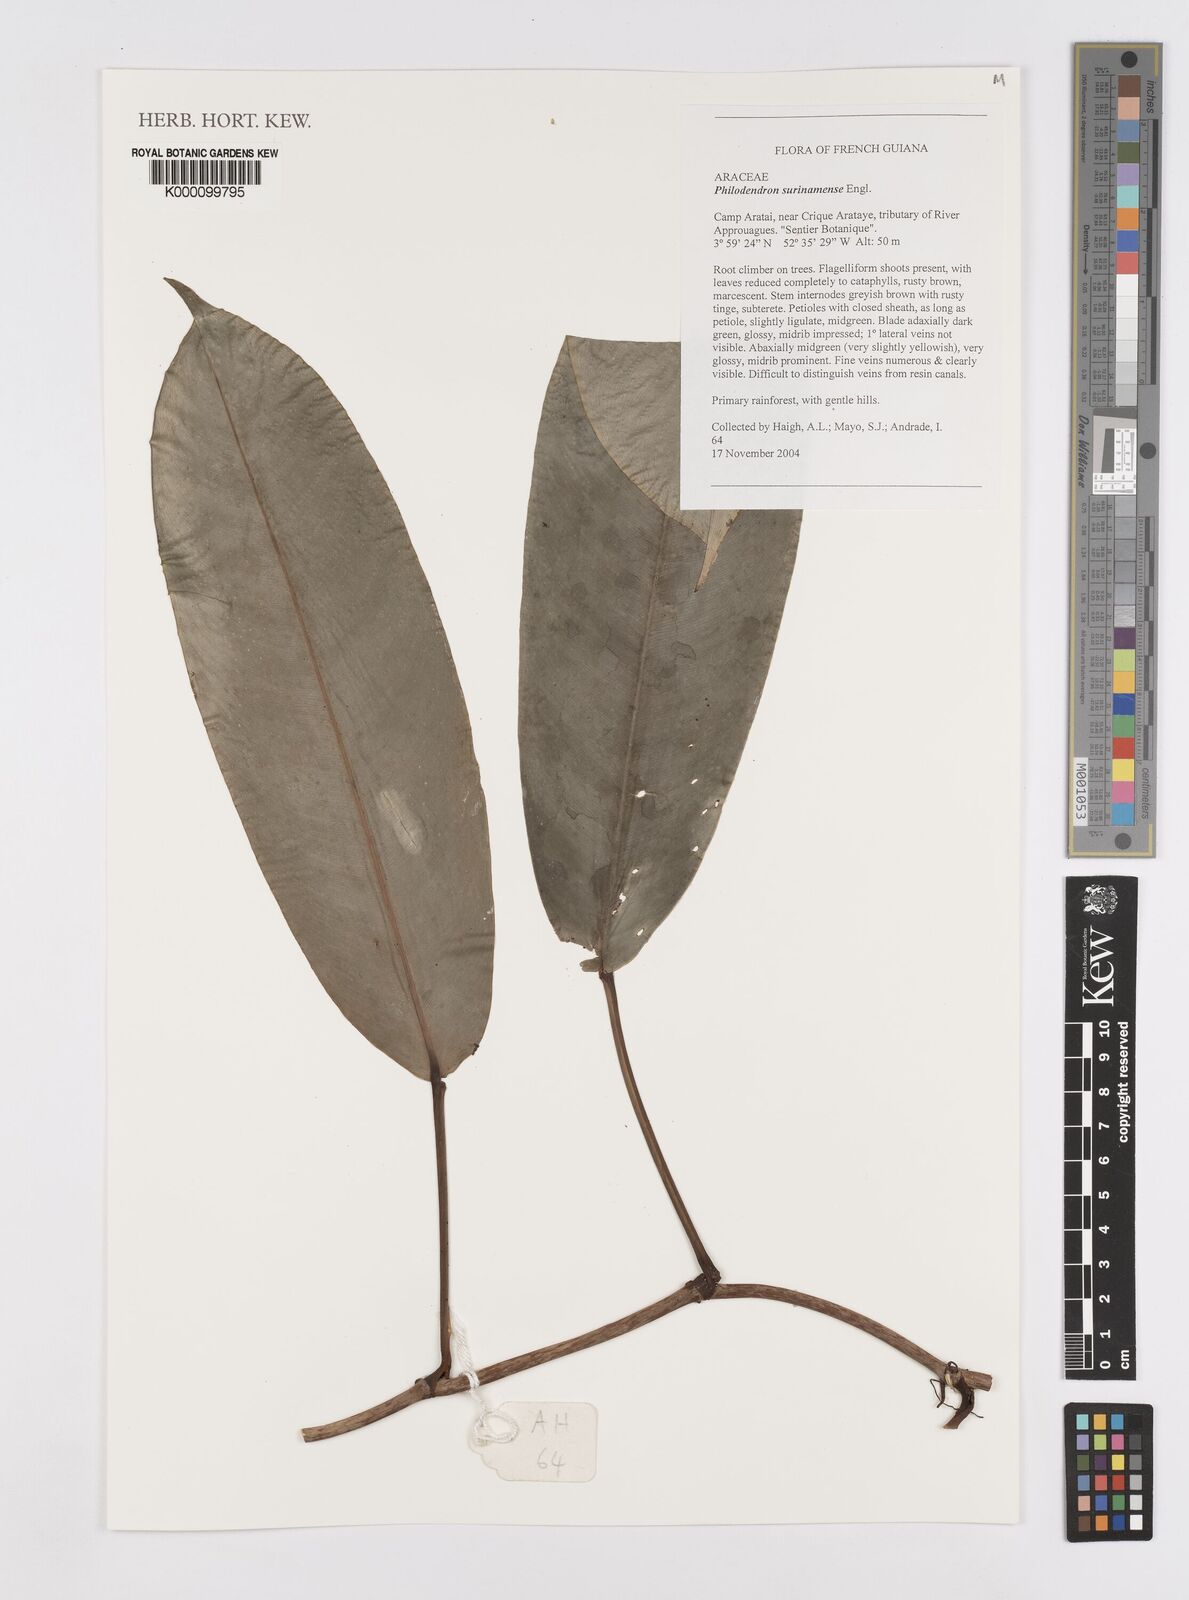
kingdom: Plantae
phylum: Tracheophyta
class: Liliopsida
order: Alismatales
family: Araceae
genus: Philodendron
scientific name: Philodendron surinamense
